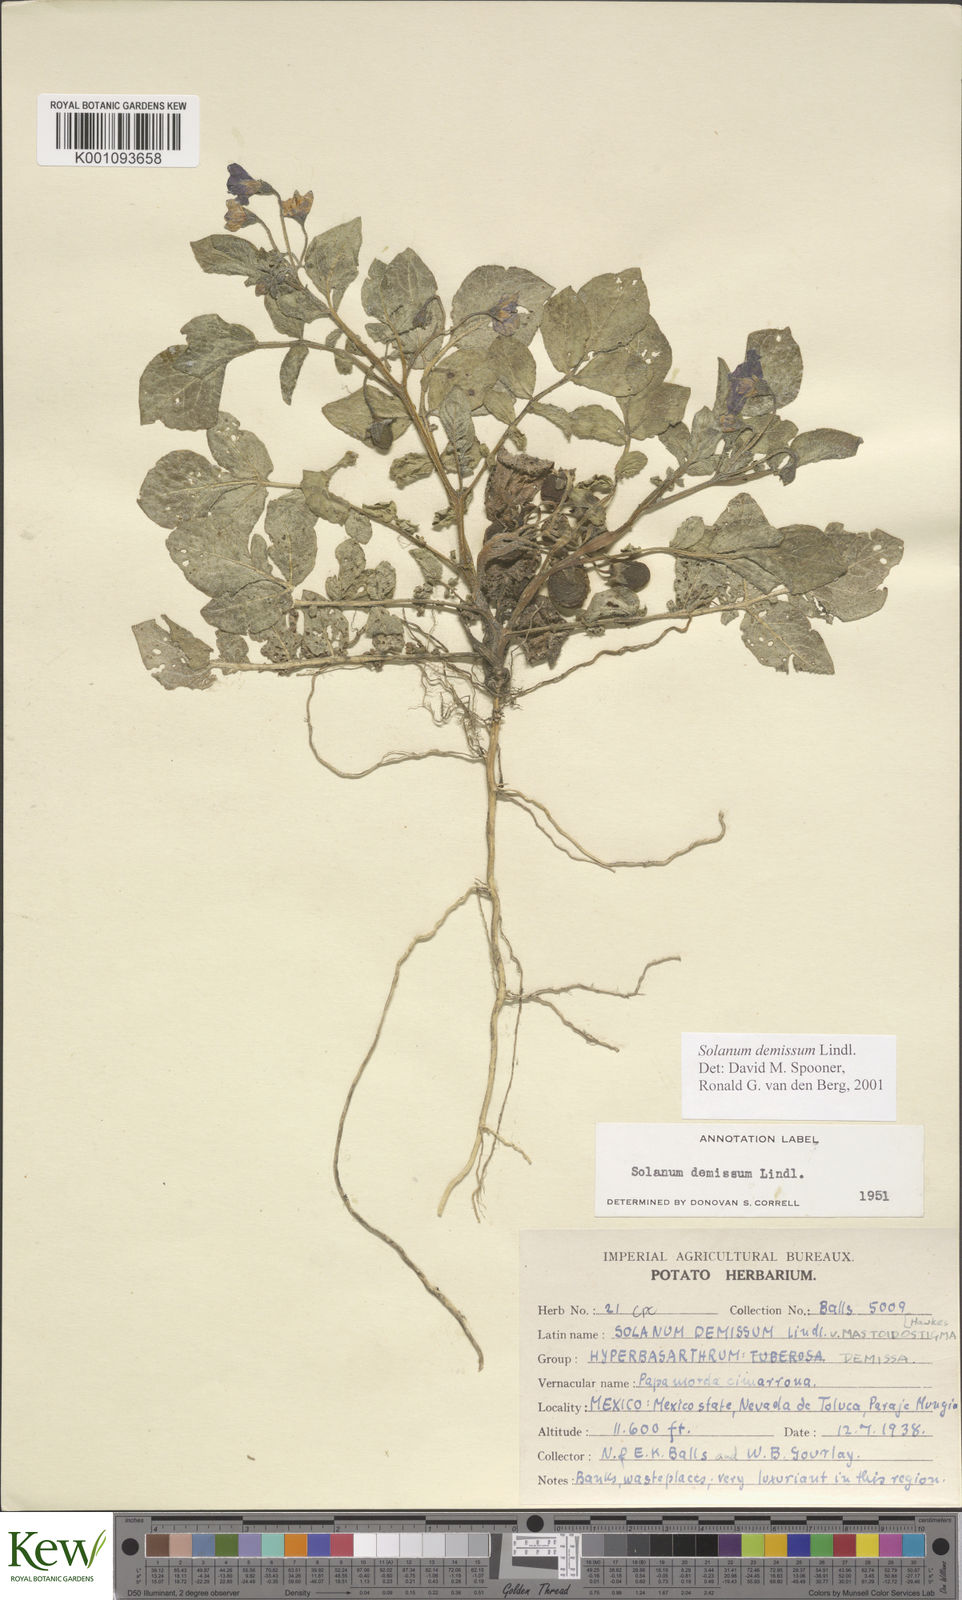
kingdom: Plantae
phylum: Tracheophyta
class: Magnoliopsida
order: Solanales
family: Solanaceae
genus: Solanum
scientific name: Solanum demissum
